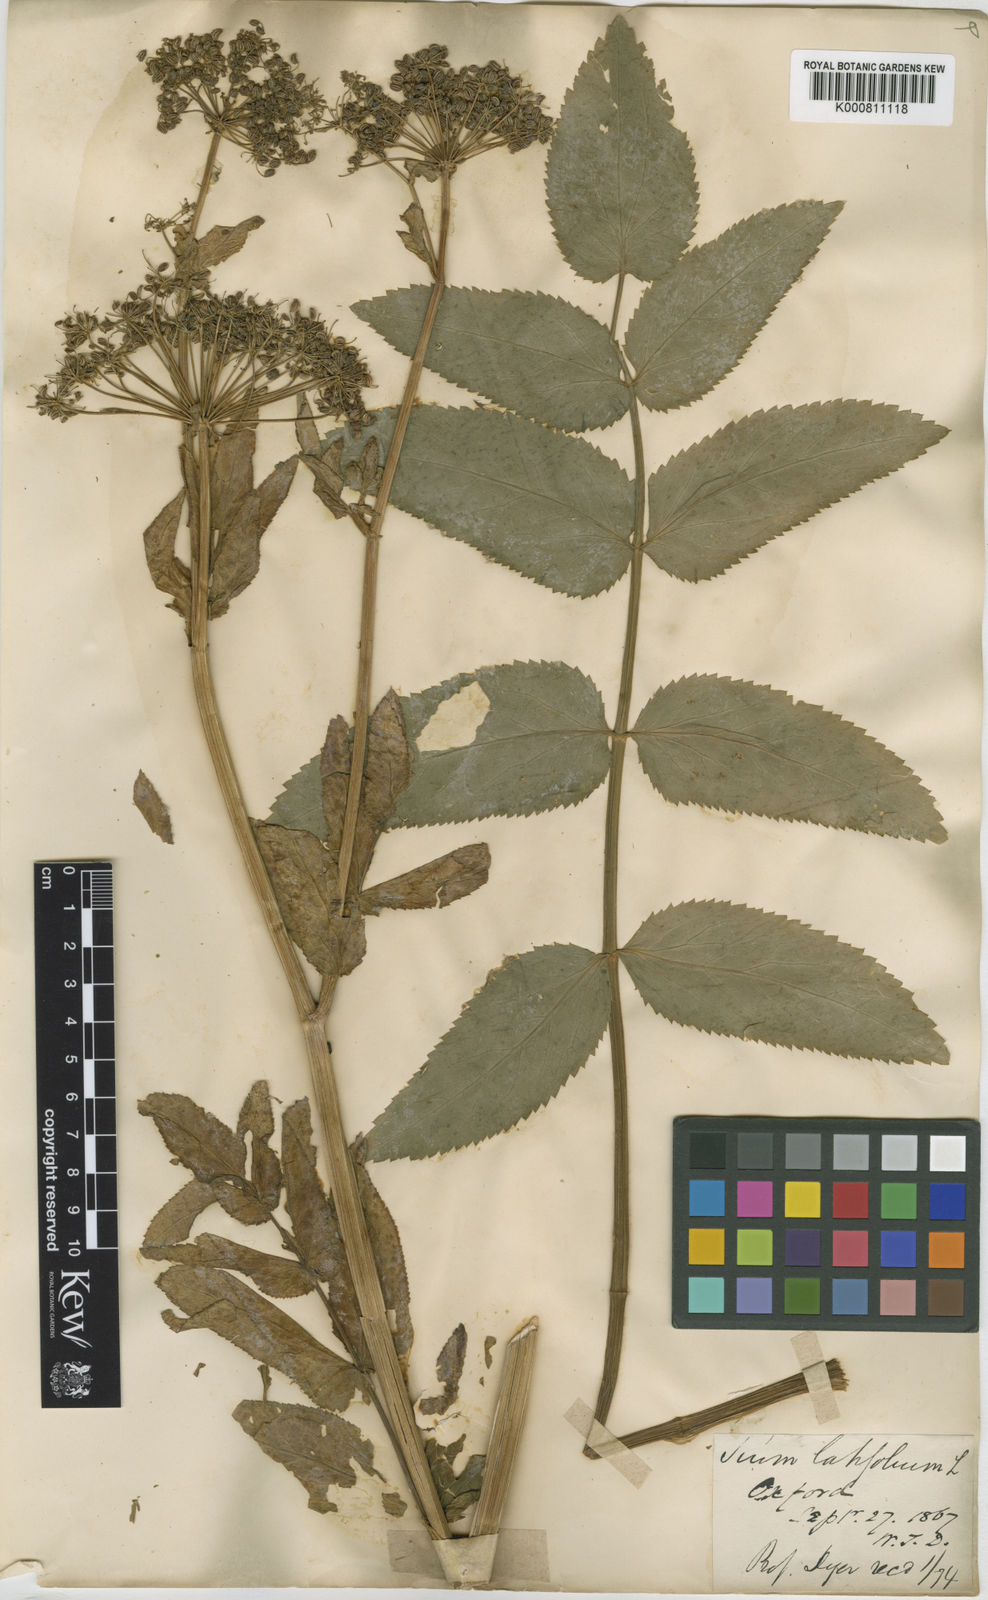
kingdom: Plantae
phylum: Tracheophyta
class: Magnoliopsida
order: Apiales
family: Apiaceae
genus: Sium
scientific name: Sium latifolium
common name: Greater water-parsnip
